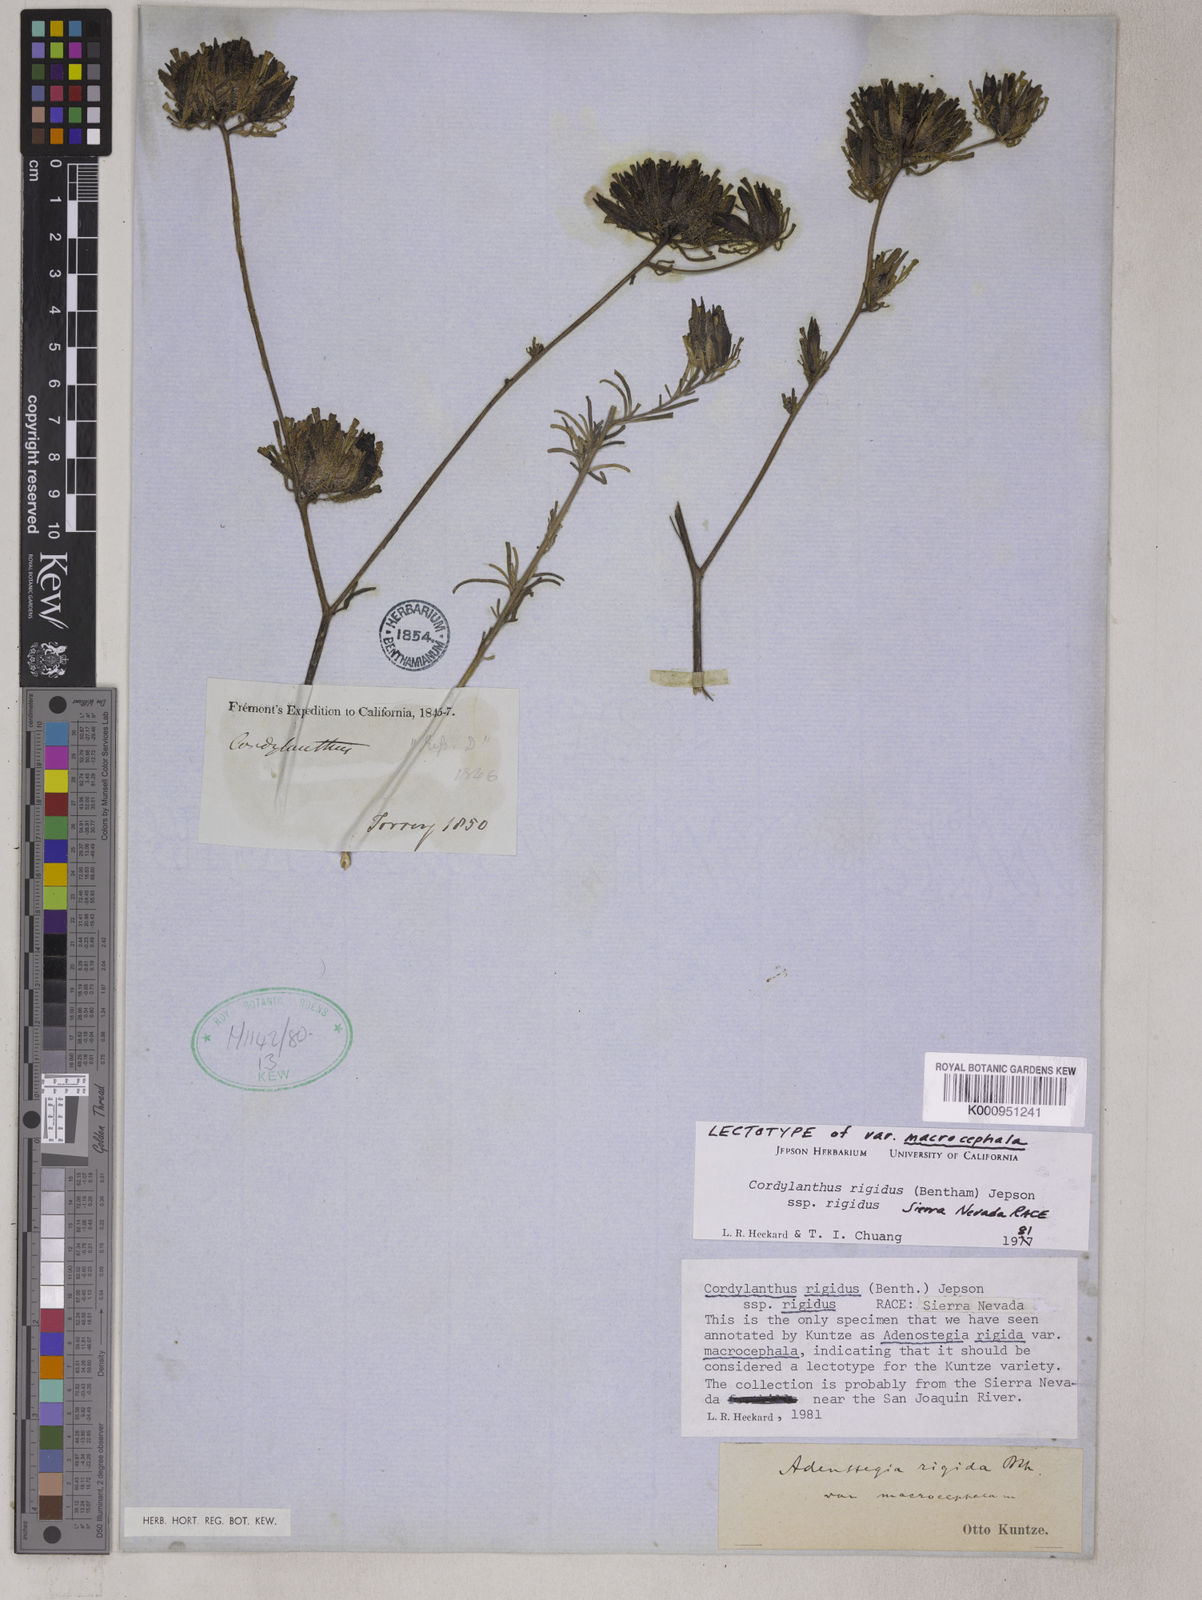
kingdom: Plantae
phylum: Tracheophyta
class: Magnoliopsida
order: Lamiales
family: Orobanchaceae
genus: Cordylanthus
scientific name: Cordylanthus rigidus
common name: Stiff-branch bird's-beak
